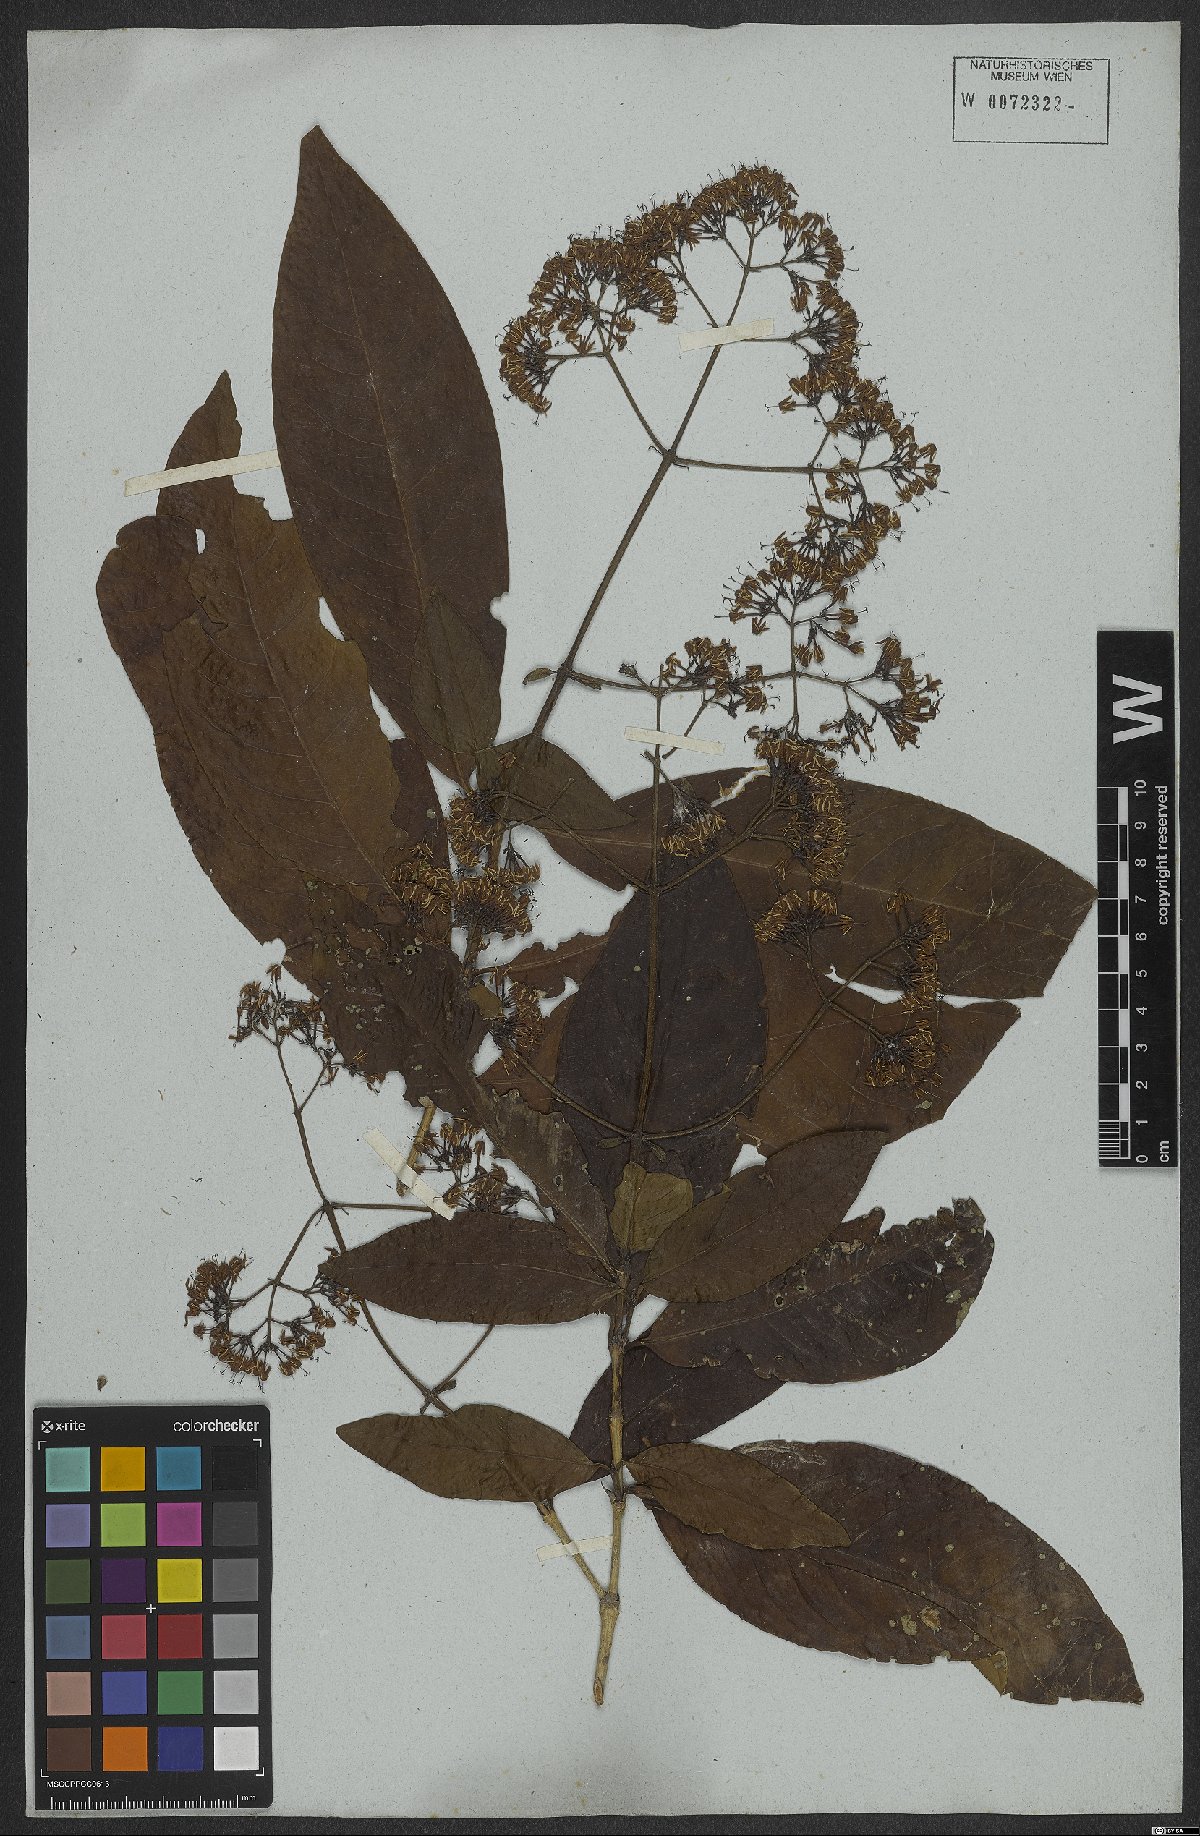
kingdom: Plantae
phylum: Tracheophyta
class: Magnoliopsida
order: Gentianales
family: Rubiaceae
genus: Ixora
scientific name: Ixora syringiflora
